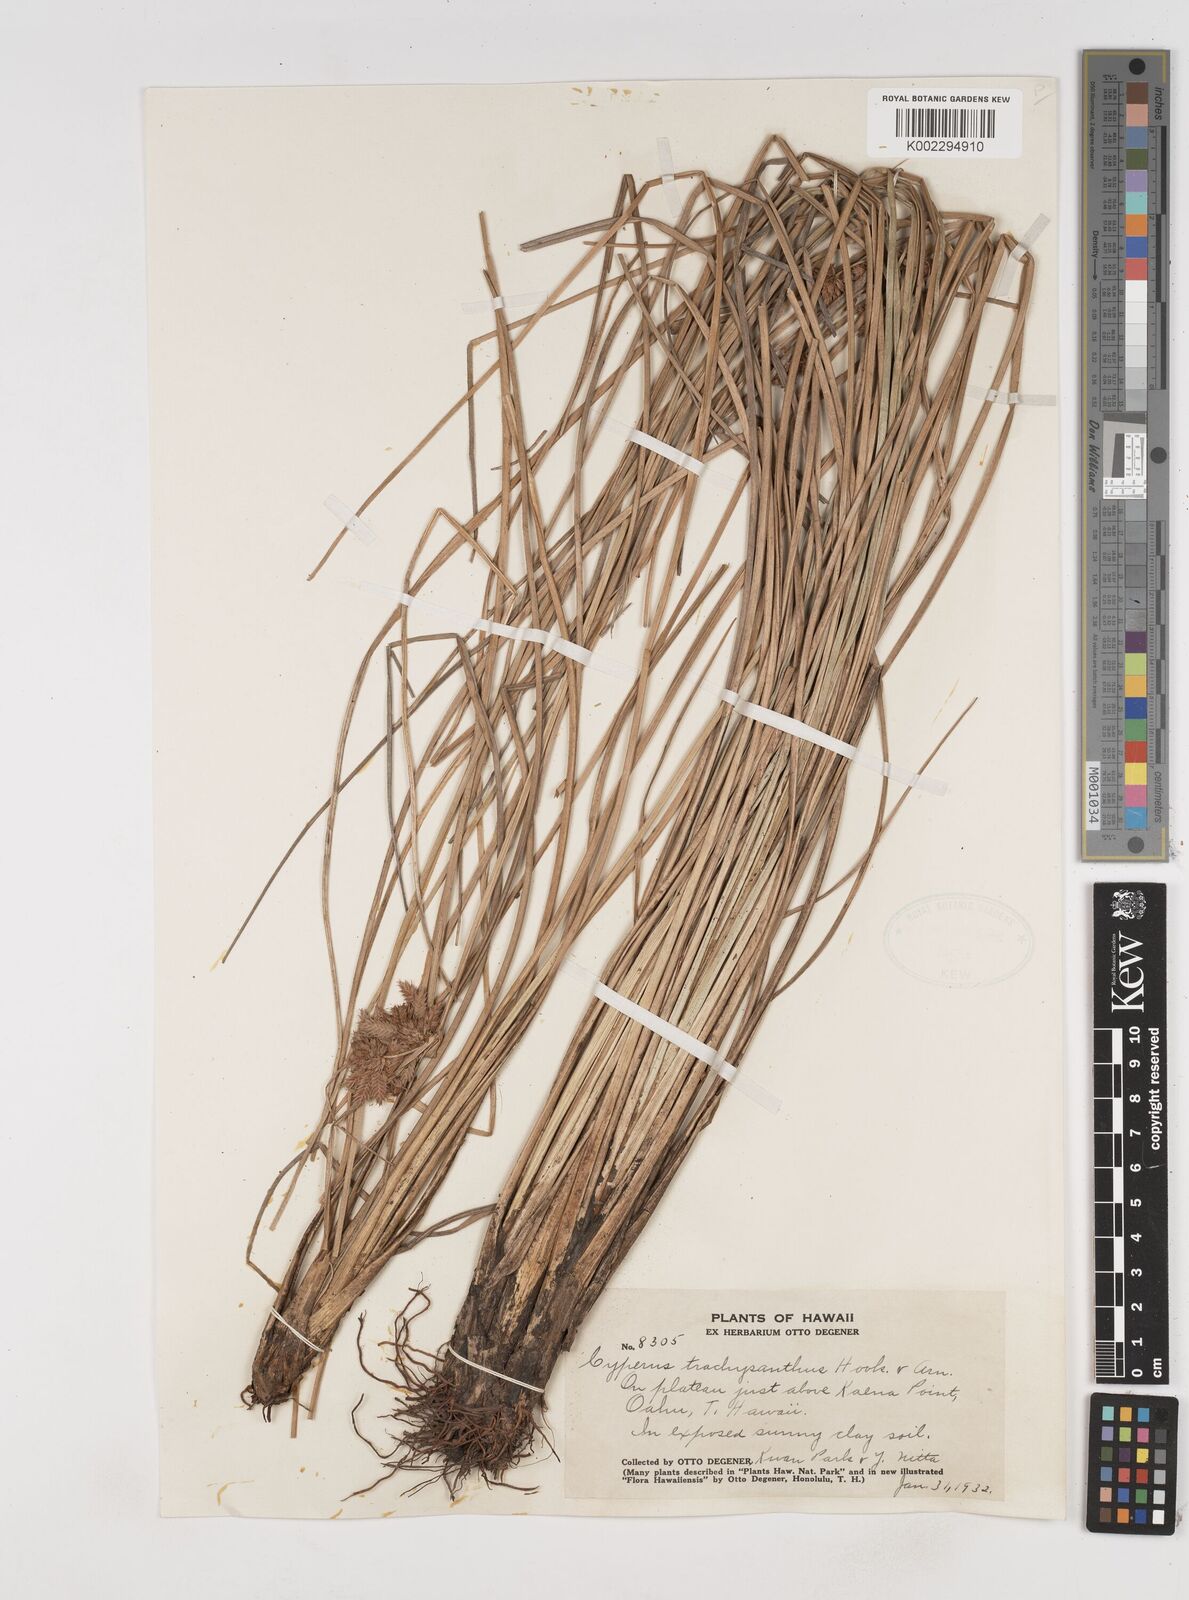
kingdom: Plantae
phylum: Tracheophyta
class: Liliopsida
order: Poales
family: Cyperaceae
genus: Cyperus
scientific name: Cyperus trachysanthos
